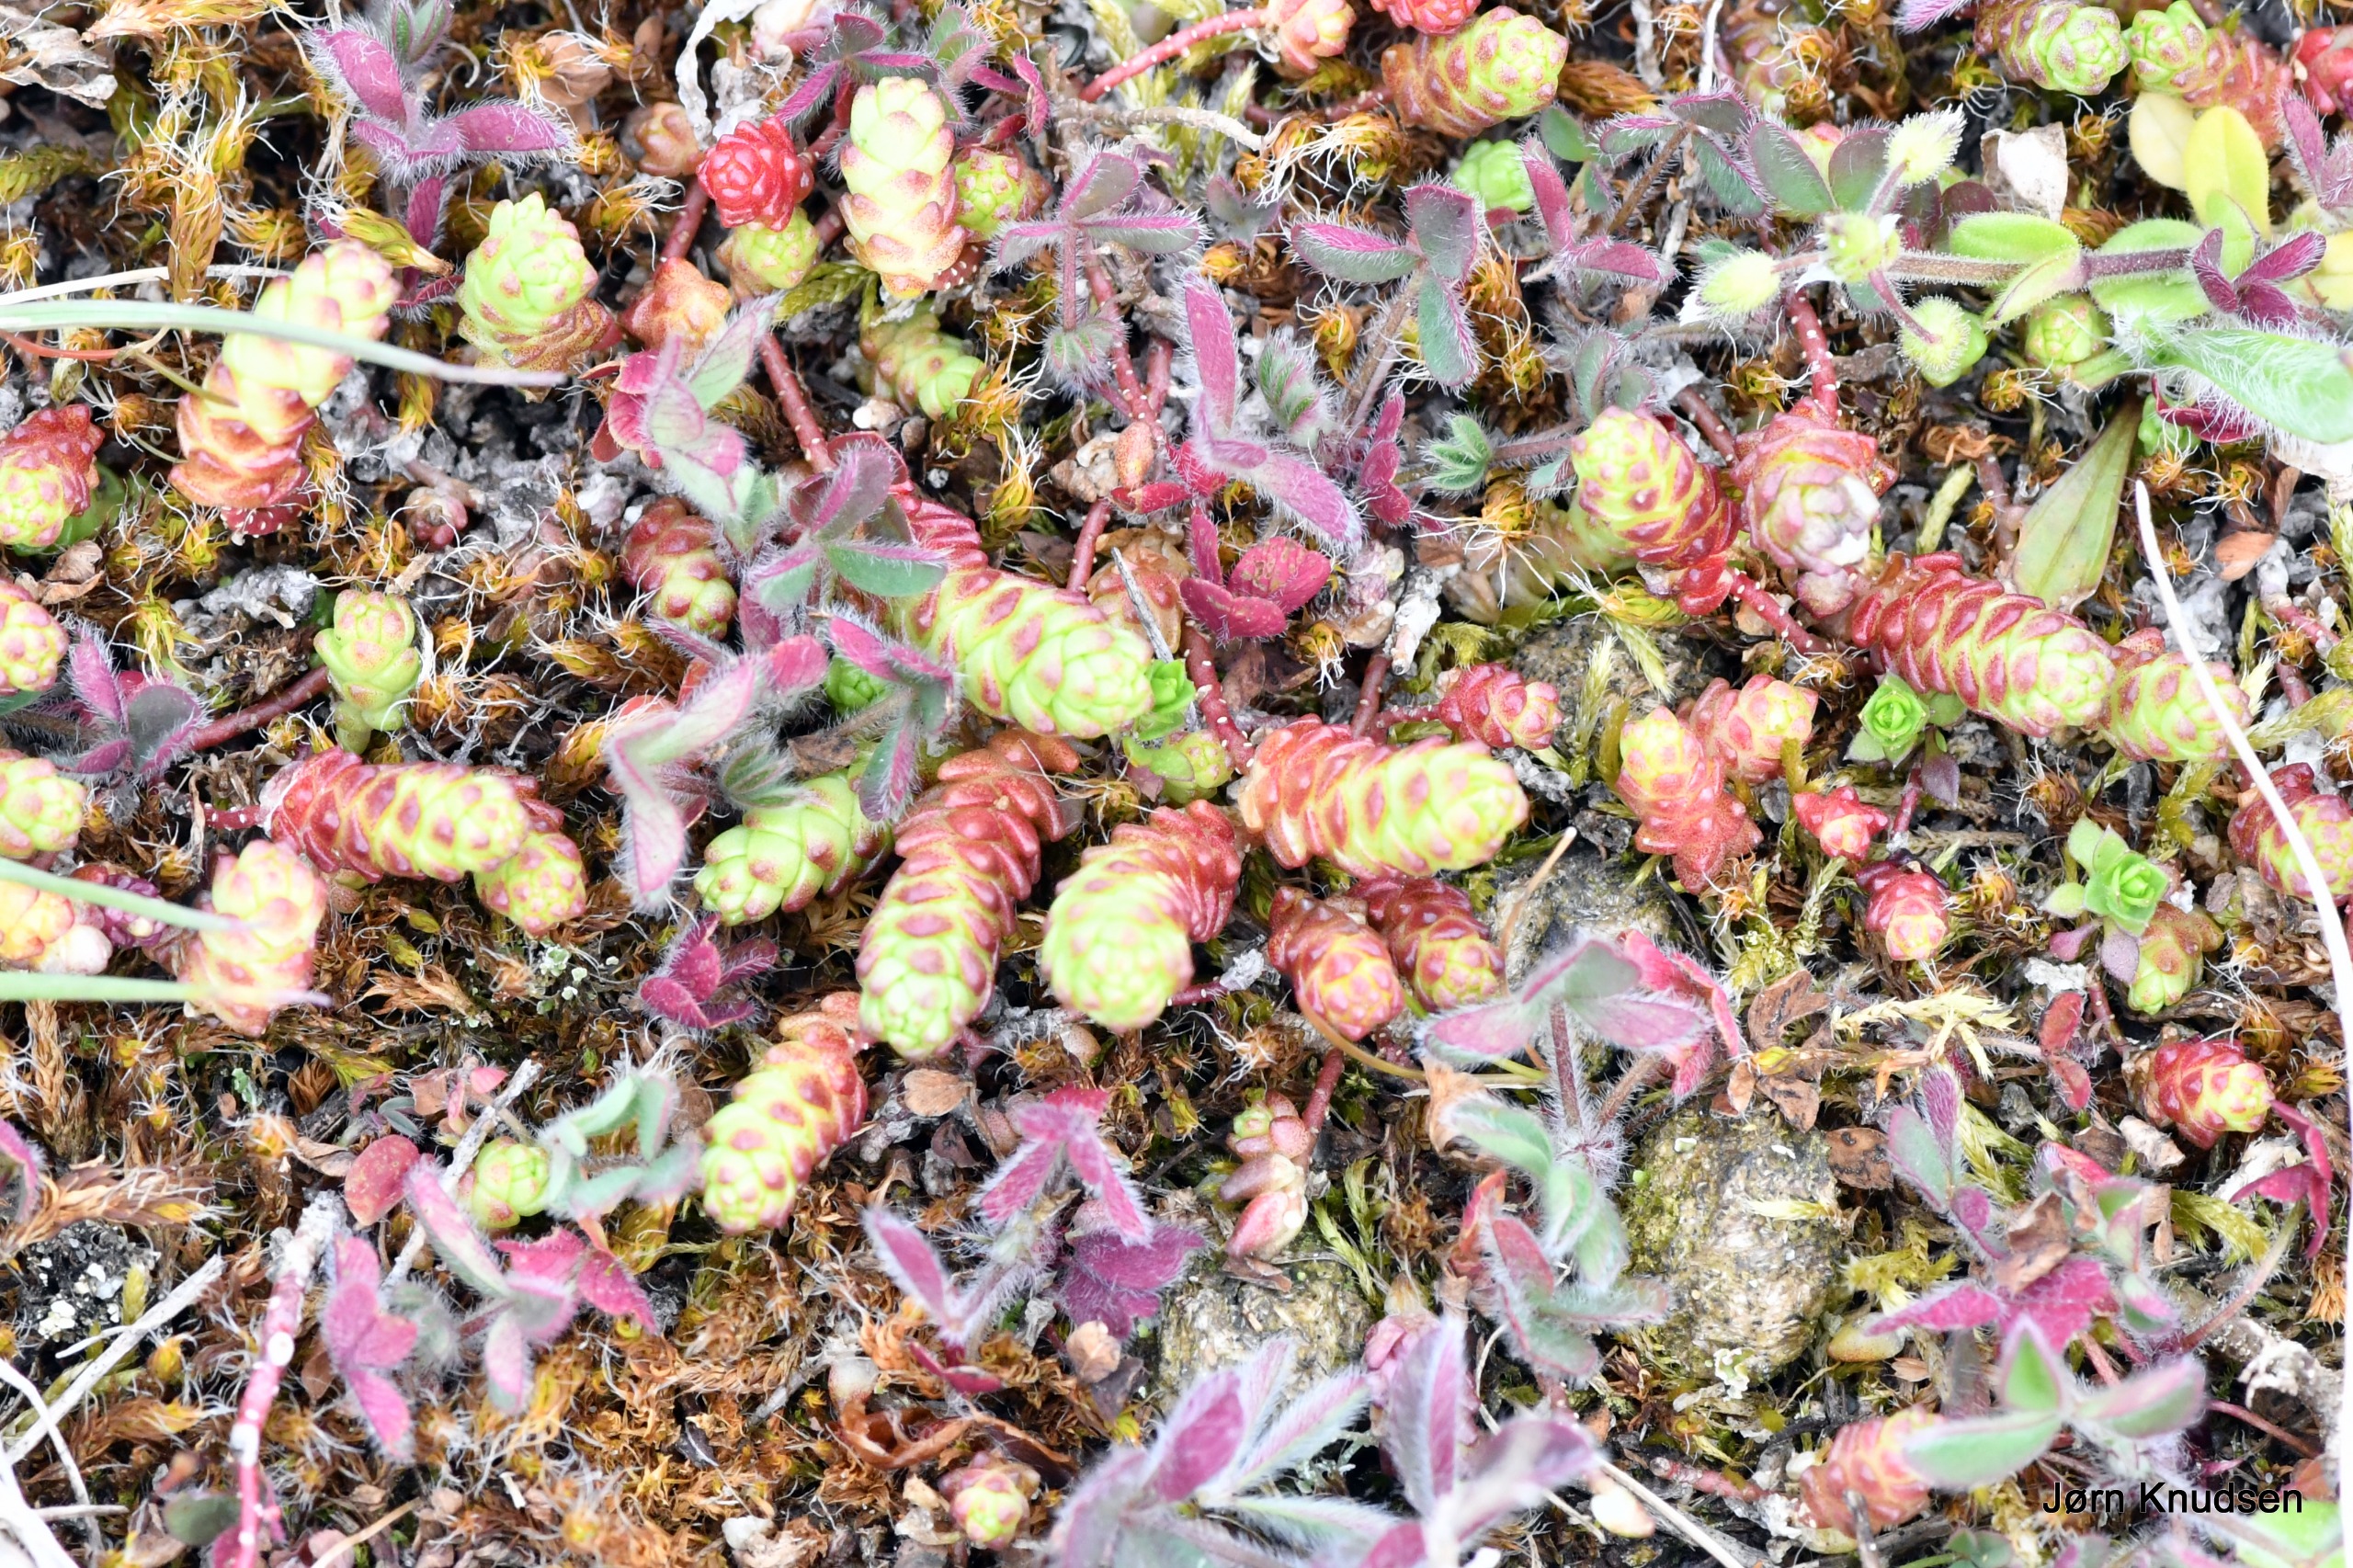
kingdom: Plantae
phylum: Tracheophyta
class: Magnoliopsida
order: Saxifragales
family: Crassulaceae
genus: Sedum
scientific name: Sedum acre
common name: Bidende stenurt
